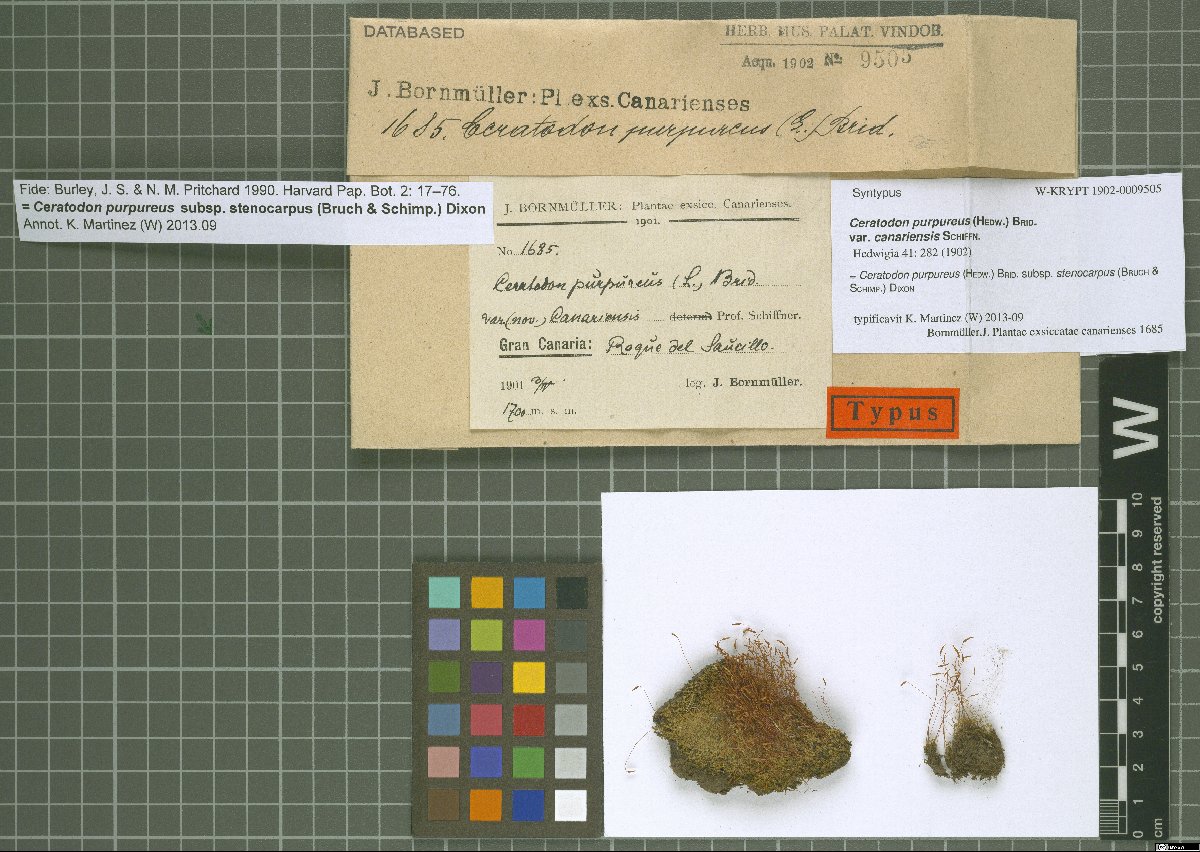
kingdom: Plantae
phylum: Bryophyta
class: Bryopsida
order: Dicranales
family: Ditrichaceae
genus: Ceratodon
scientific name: Ceratodon purpureus
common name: Redshank
